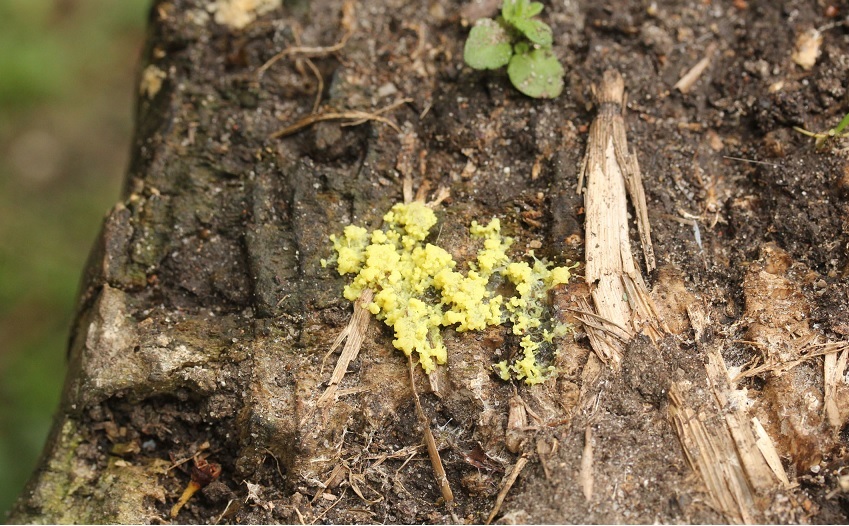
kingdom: Protozoa
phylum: Mycetozoa
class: Myxomycetes
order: Physarales
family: Physaraceae
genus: Fuligo
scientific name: Fuligo septica
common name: gul troldsmør
